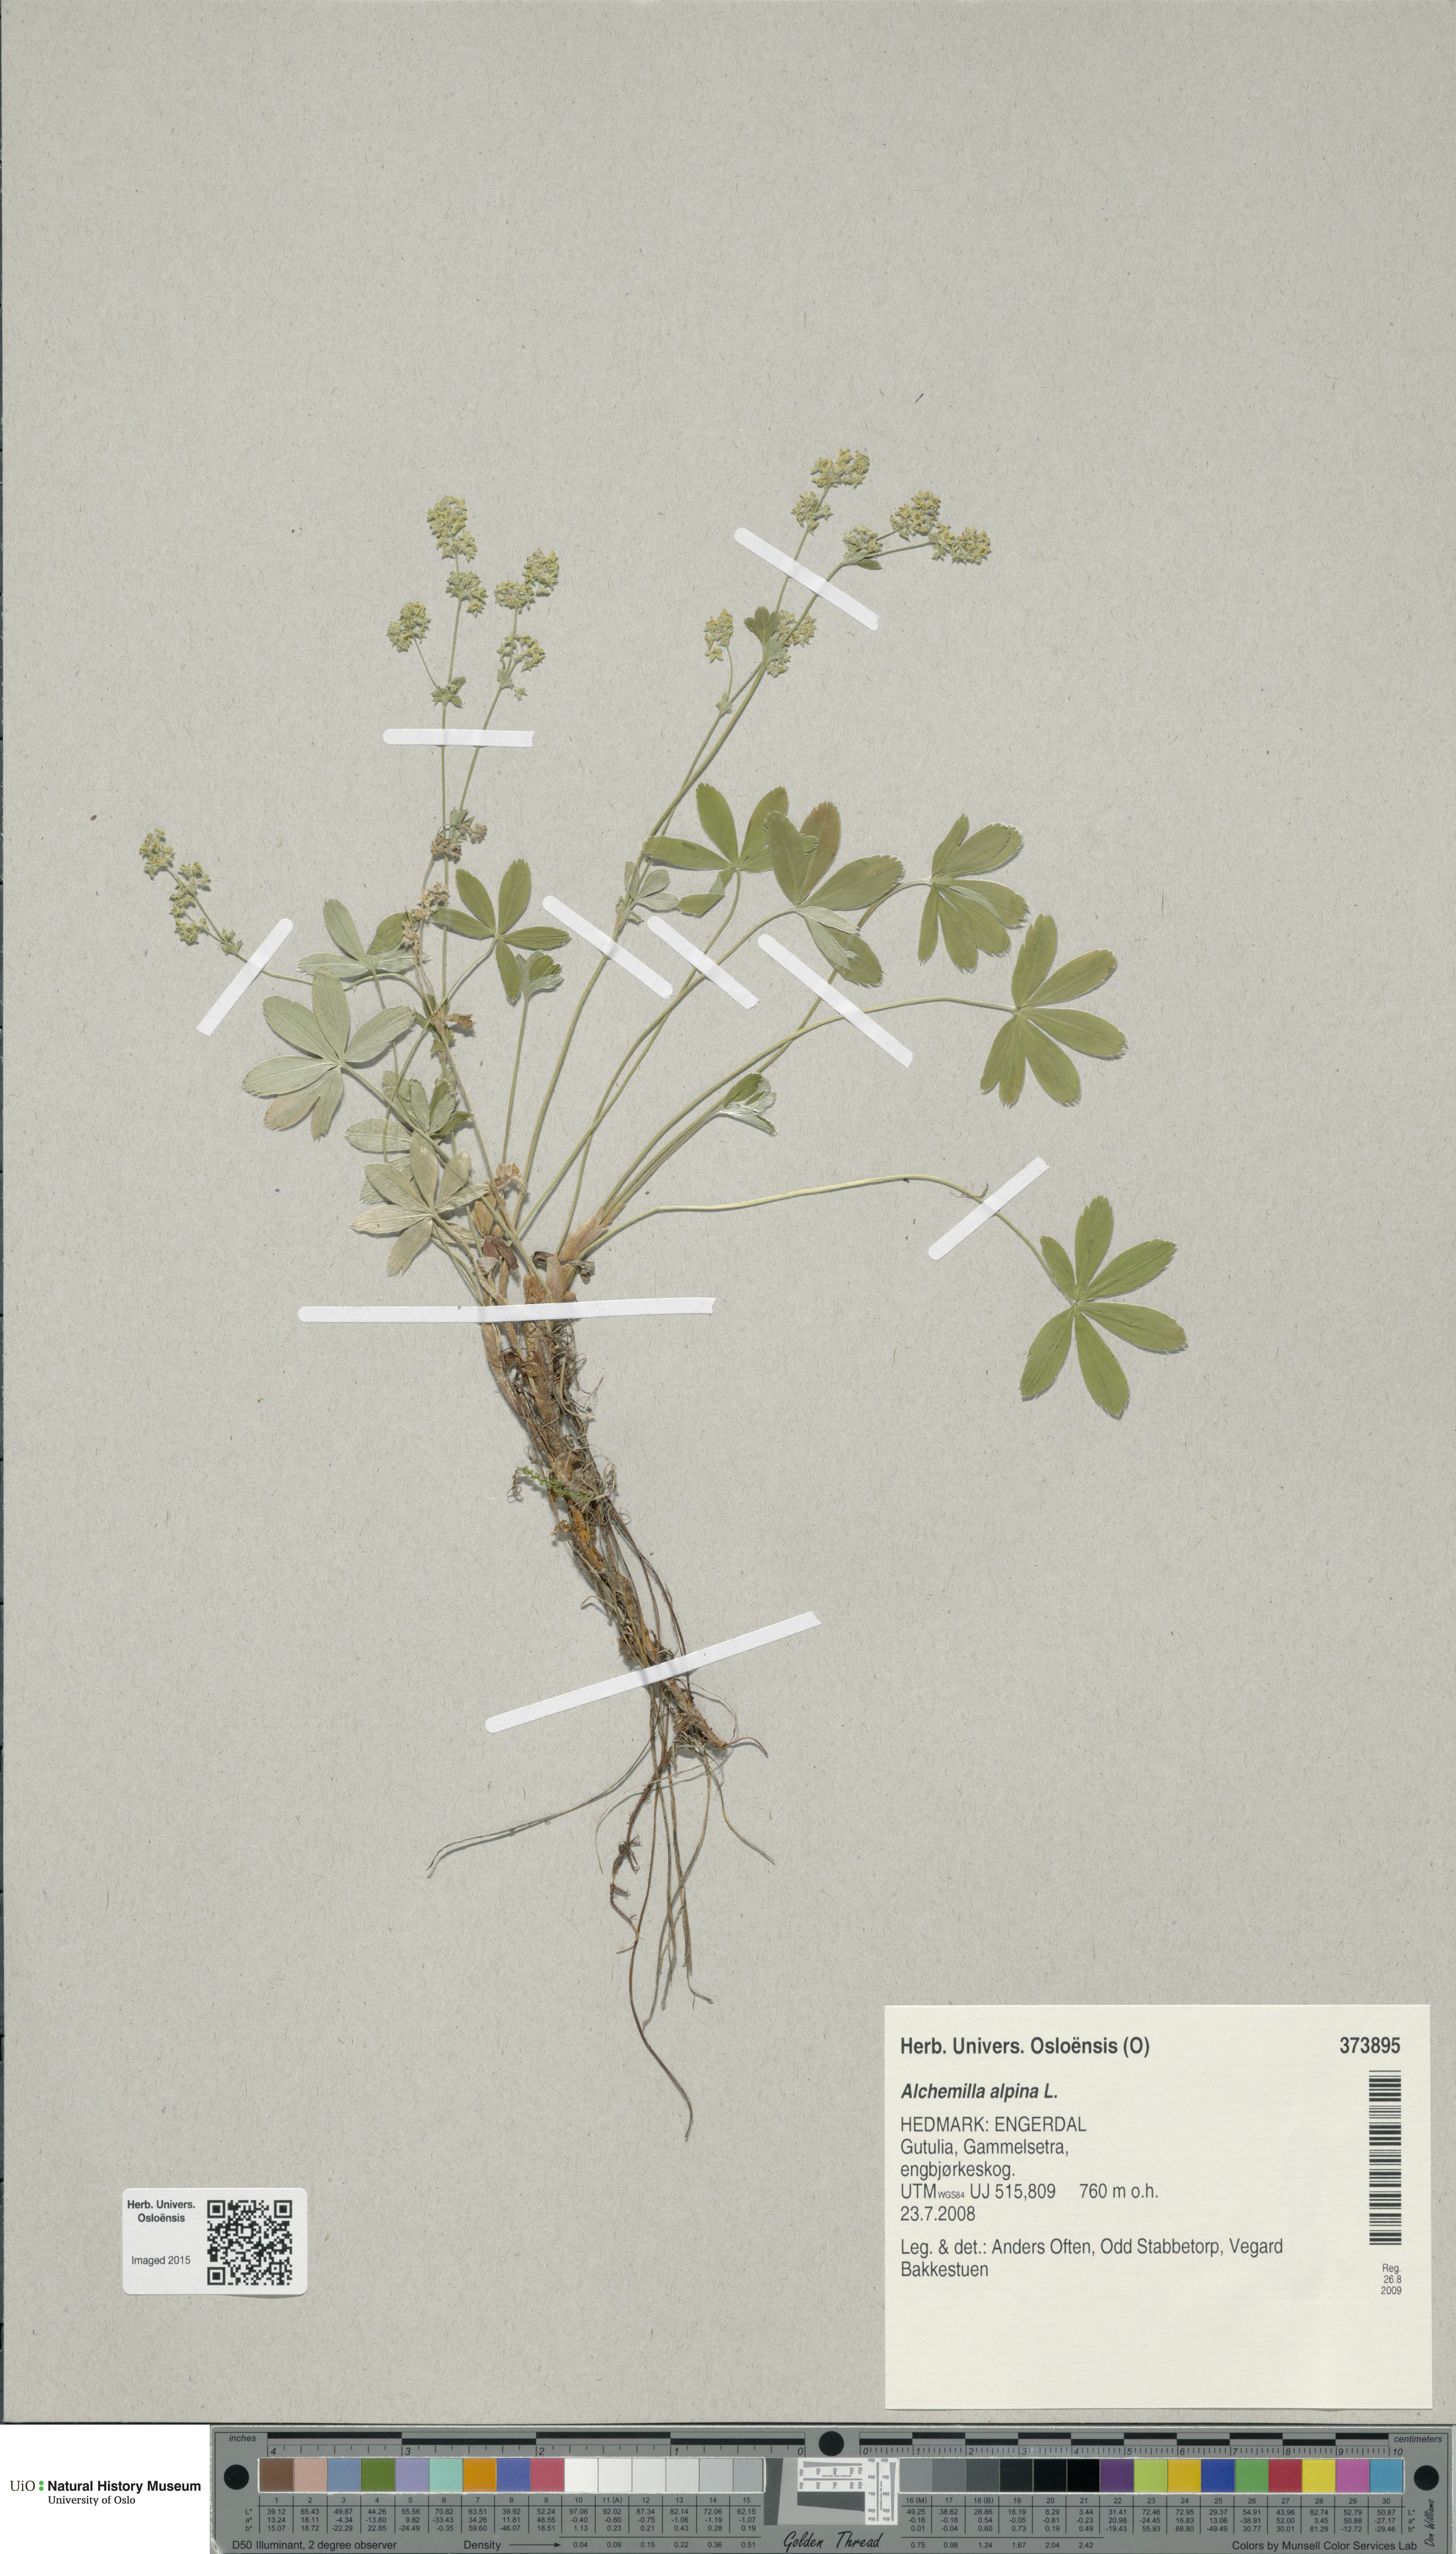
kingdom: Plantae
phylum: Tracheophyta
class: Magnoliopsida
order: Rosales
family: Rosaceae
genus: Alchemilla
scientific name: Alchemilla alpina
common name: Alpine lady's-mantle
